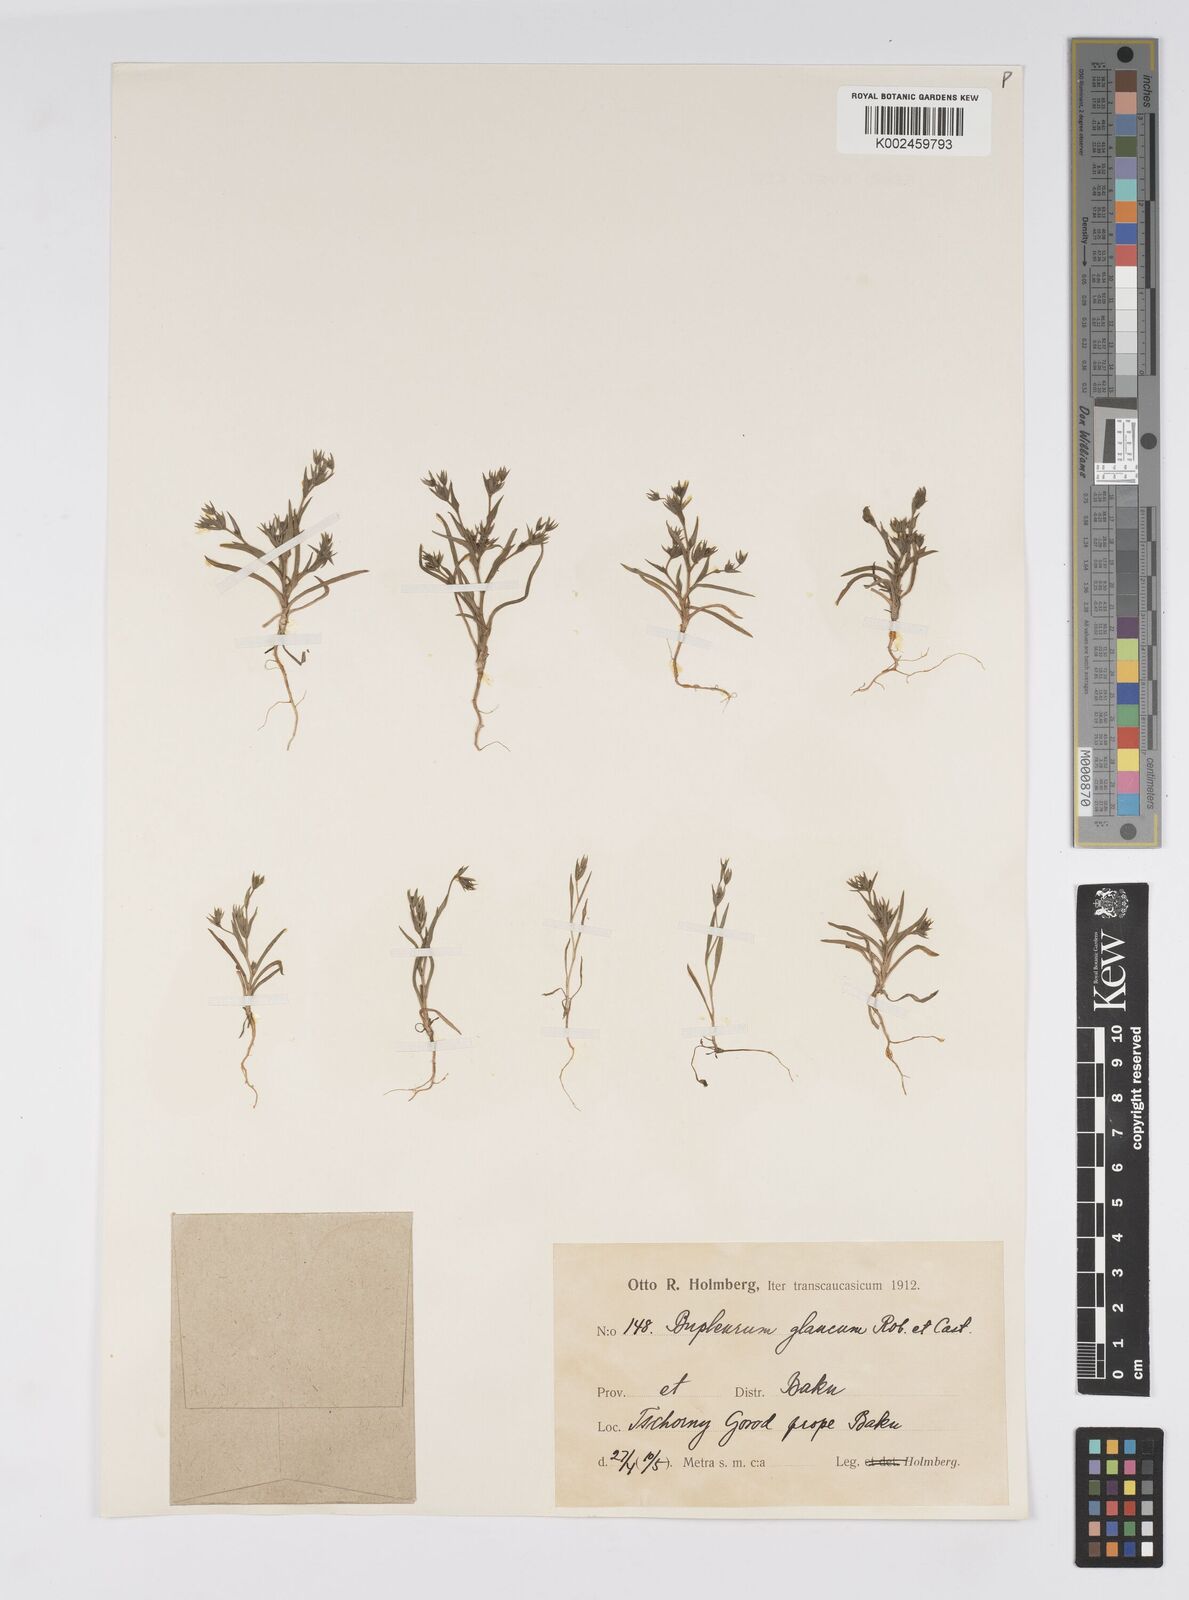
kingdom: Plantae
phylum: Tracheophyta
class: Magnoliopsida
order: Apiales
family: Apiaceae
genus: Bupleurum
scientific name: Bupleurum semicompositum
